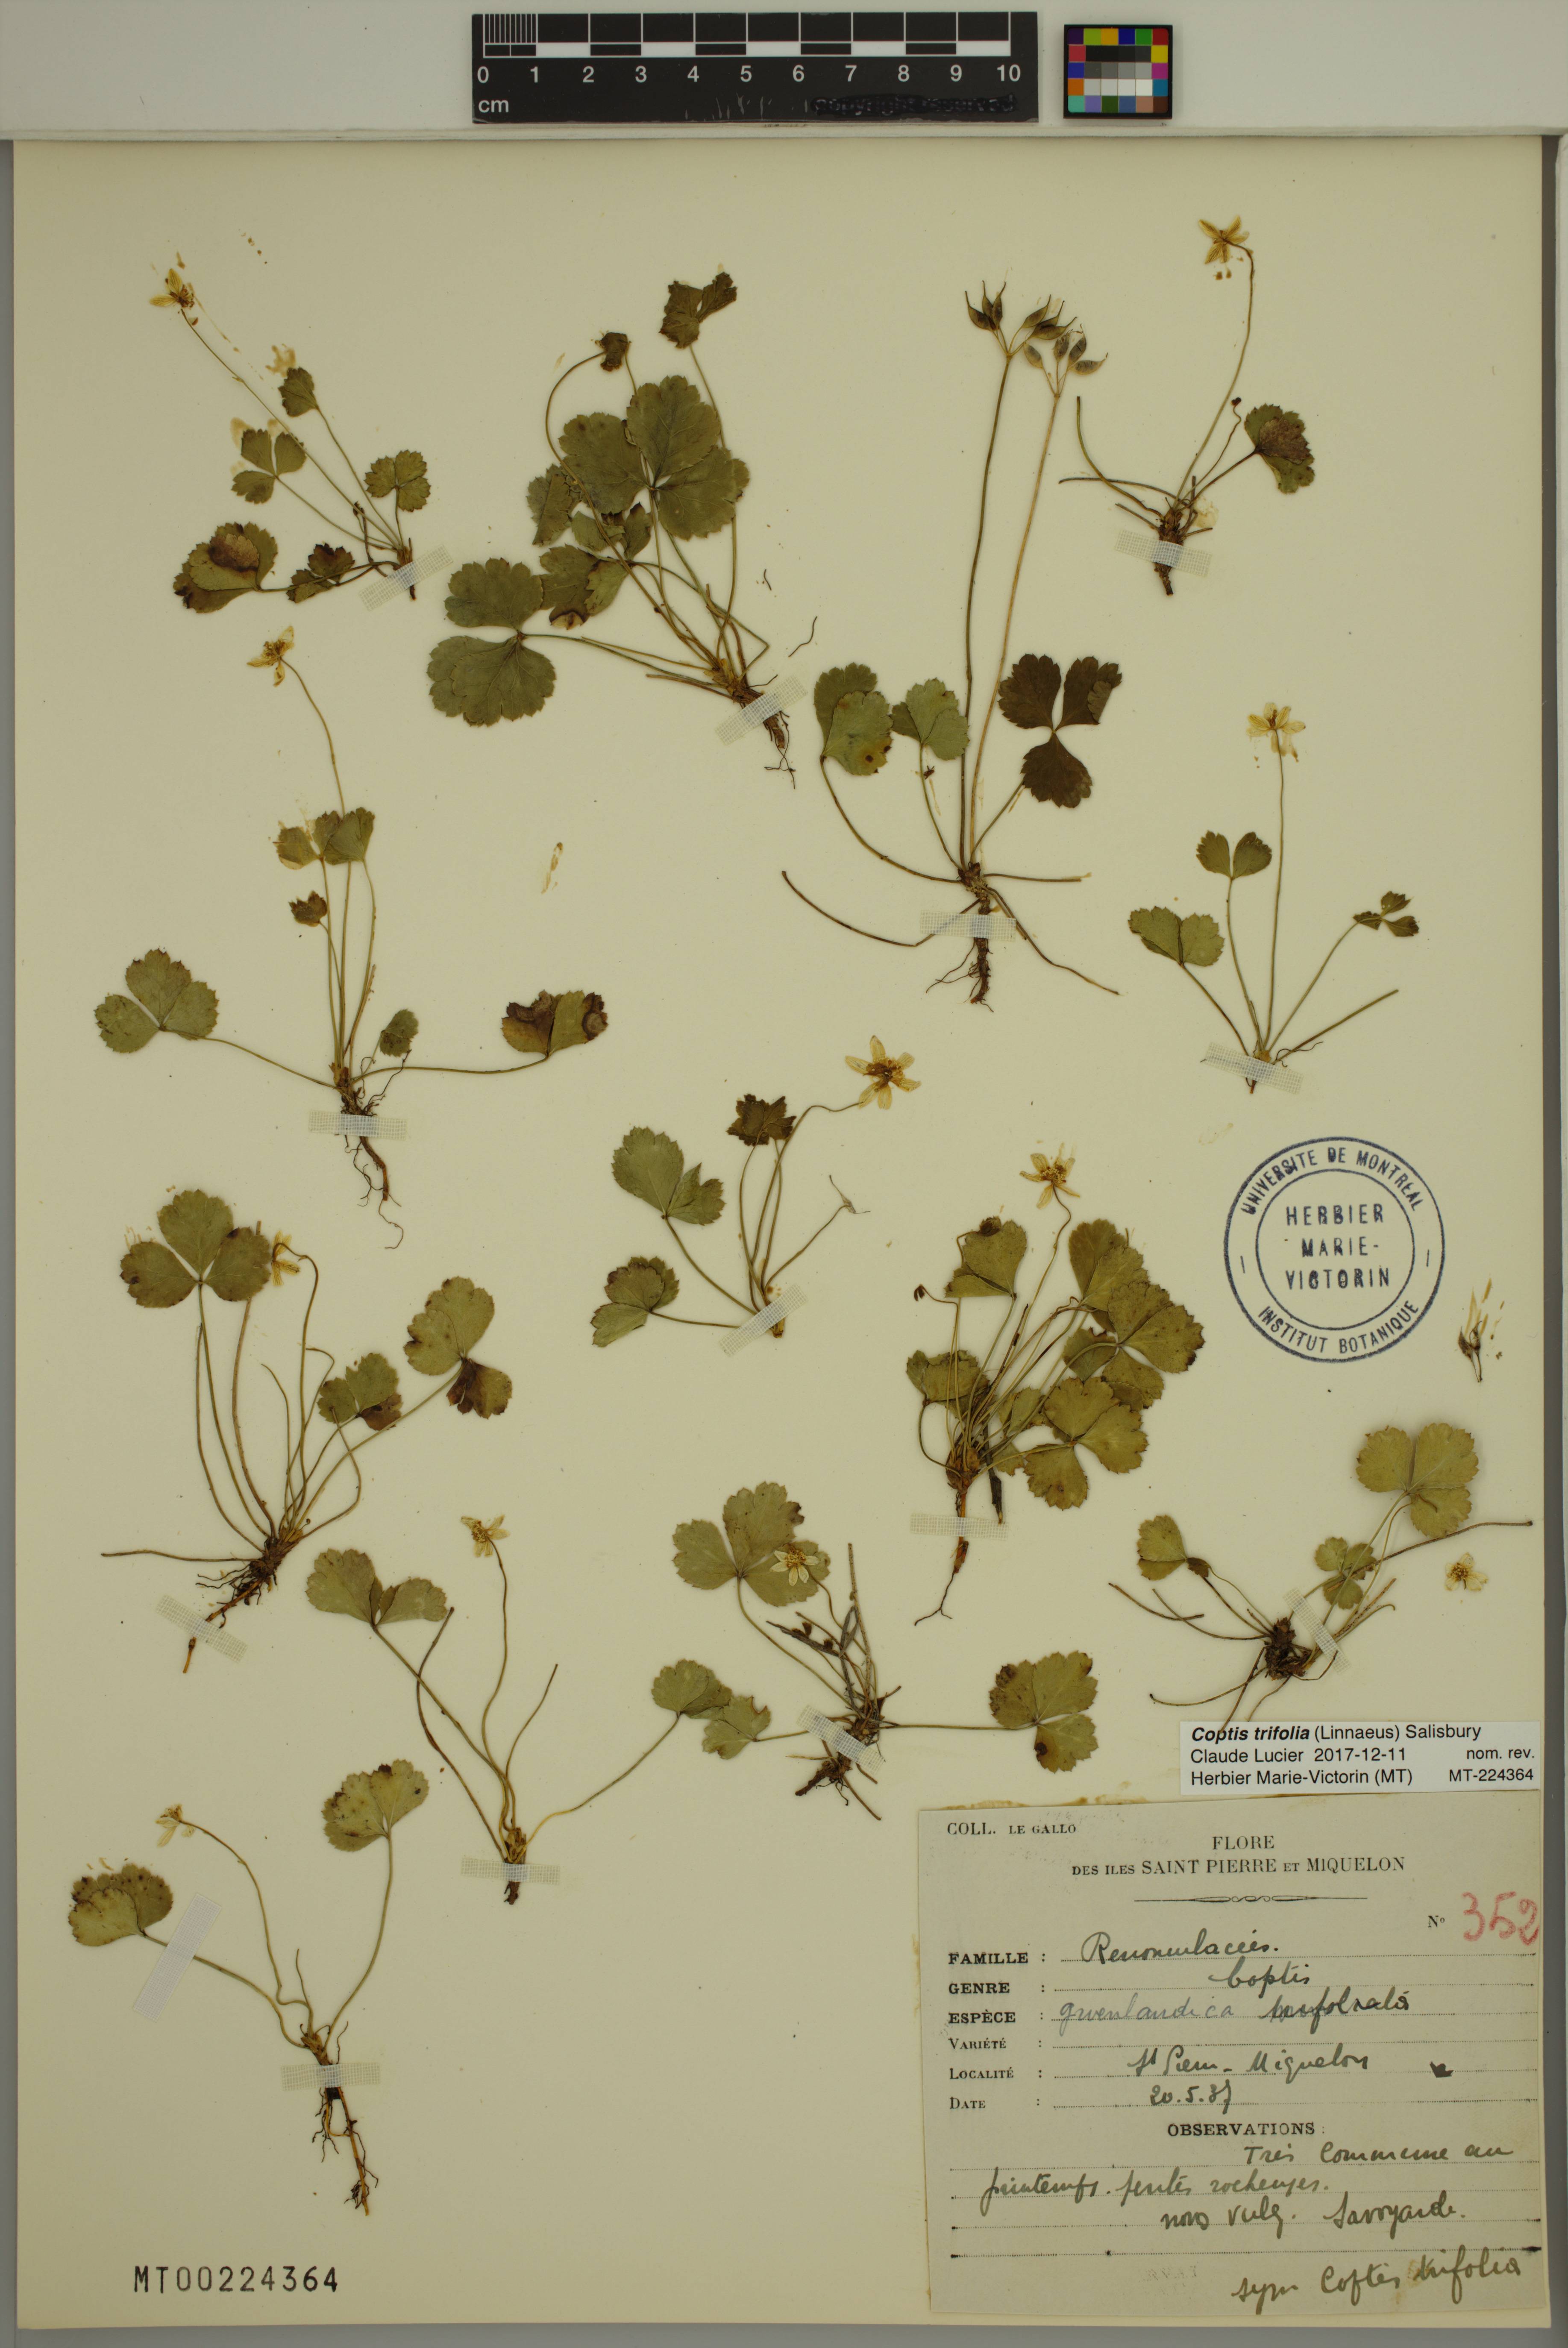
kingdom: Plantae
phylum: Tracheophyta
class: Magnoliopsida
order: Ranunculales
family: Ranunculaceae
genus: Coptis
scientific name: Coptis trifolia
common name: Canker-root
